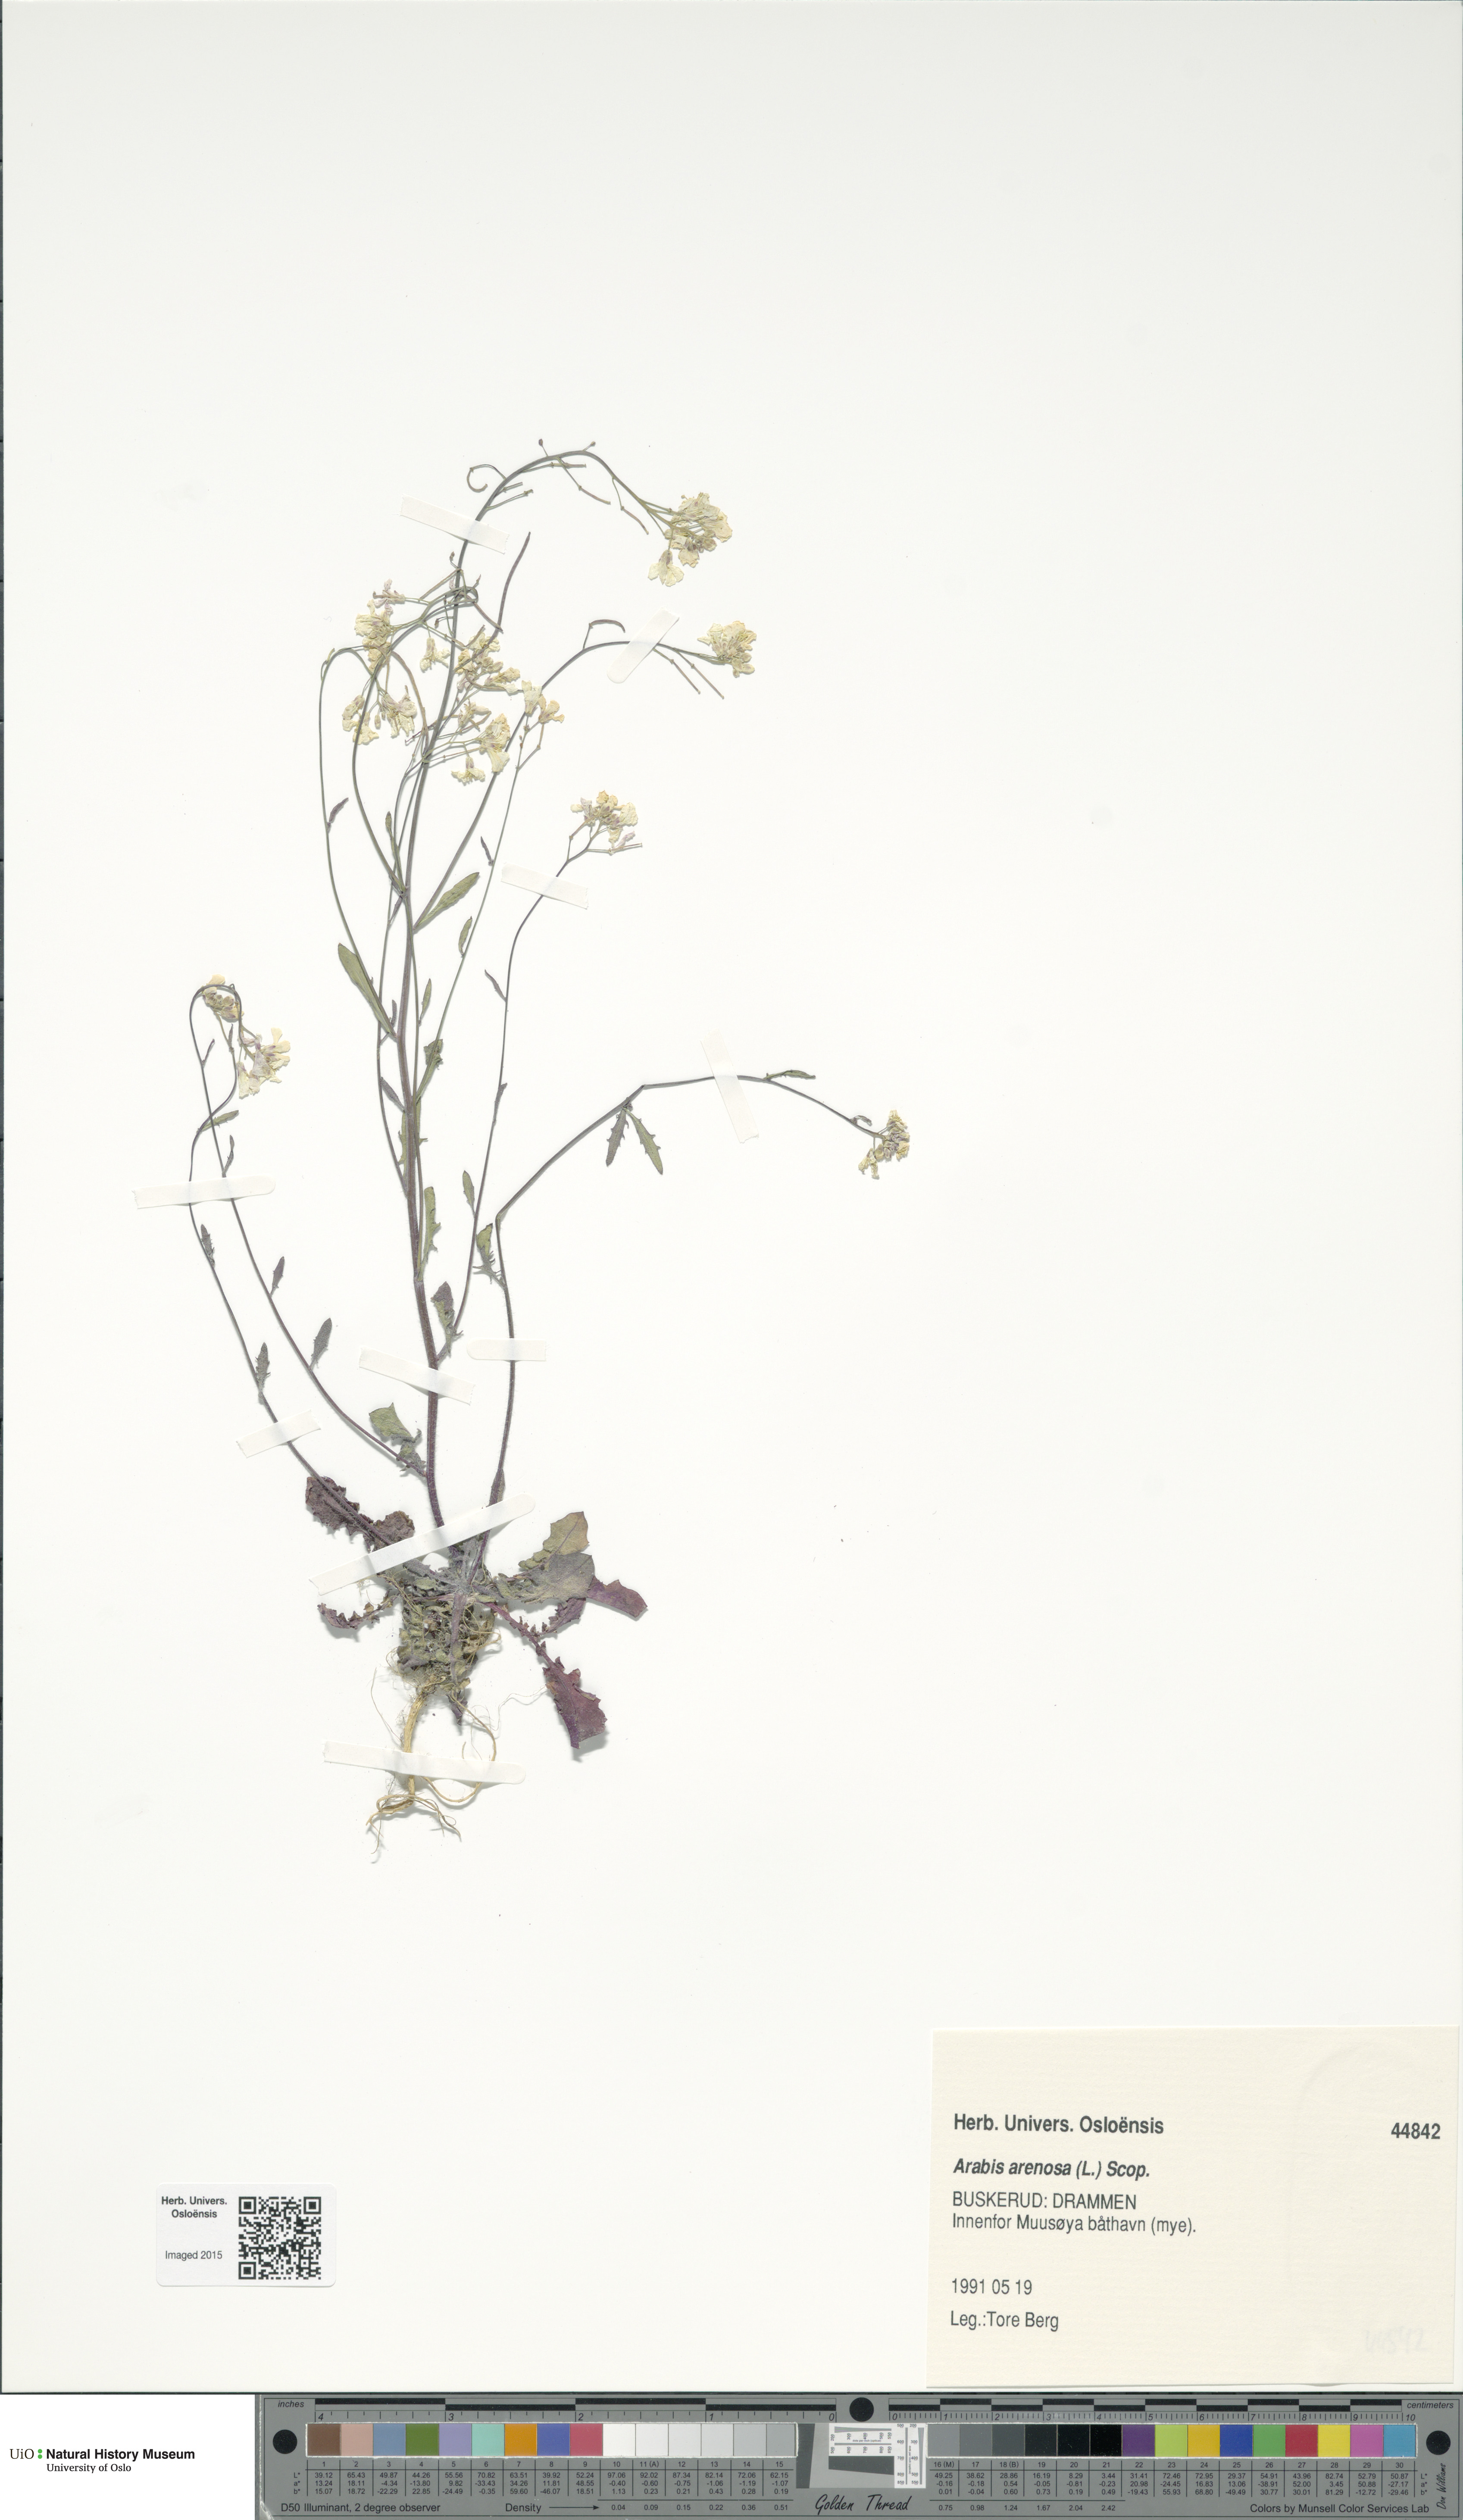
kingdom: Plantae
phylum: Tracheophyta
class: Magnoliopsida
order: Brassicales
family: Brassicaceae
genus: Arabidopsis
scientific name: Arabidopsis arenosa
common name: Sand rock-cress
